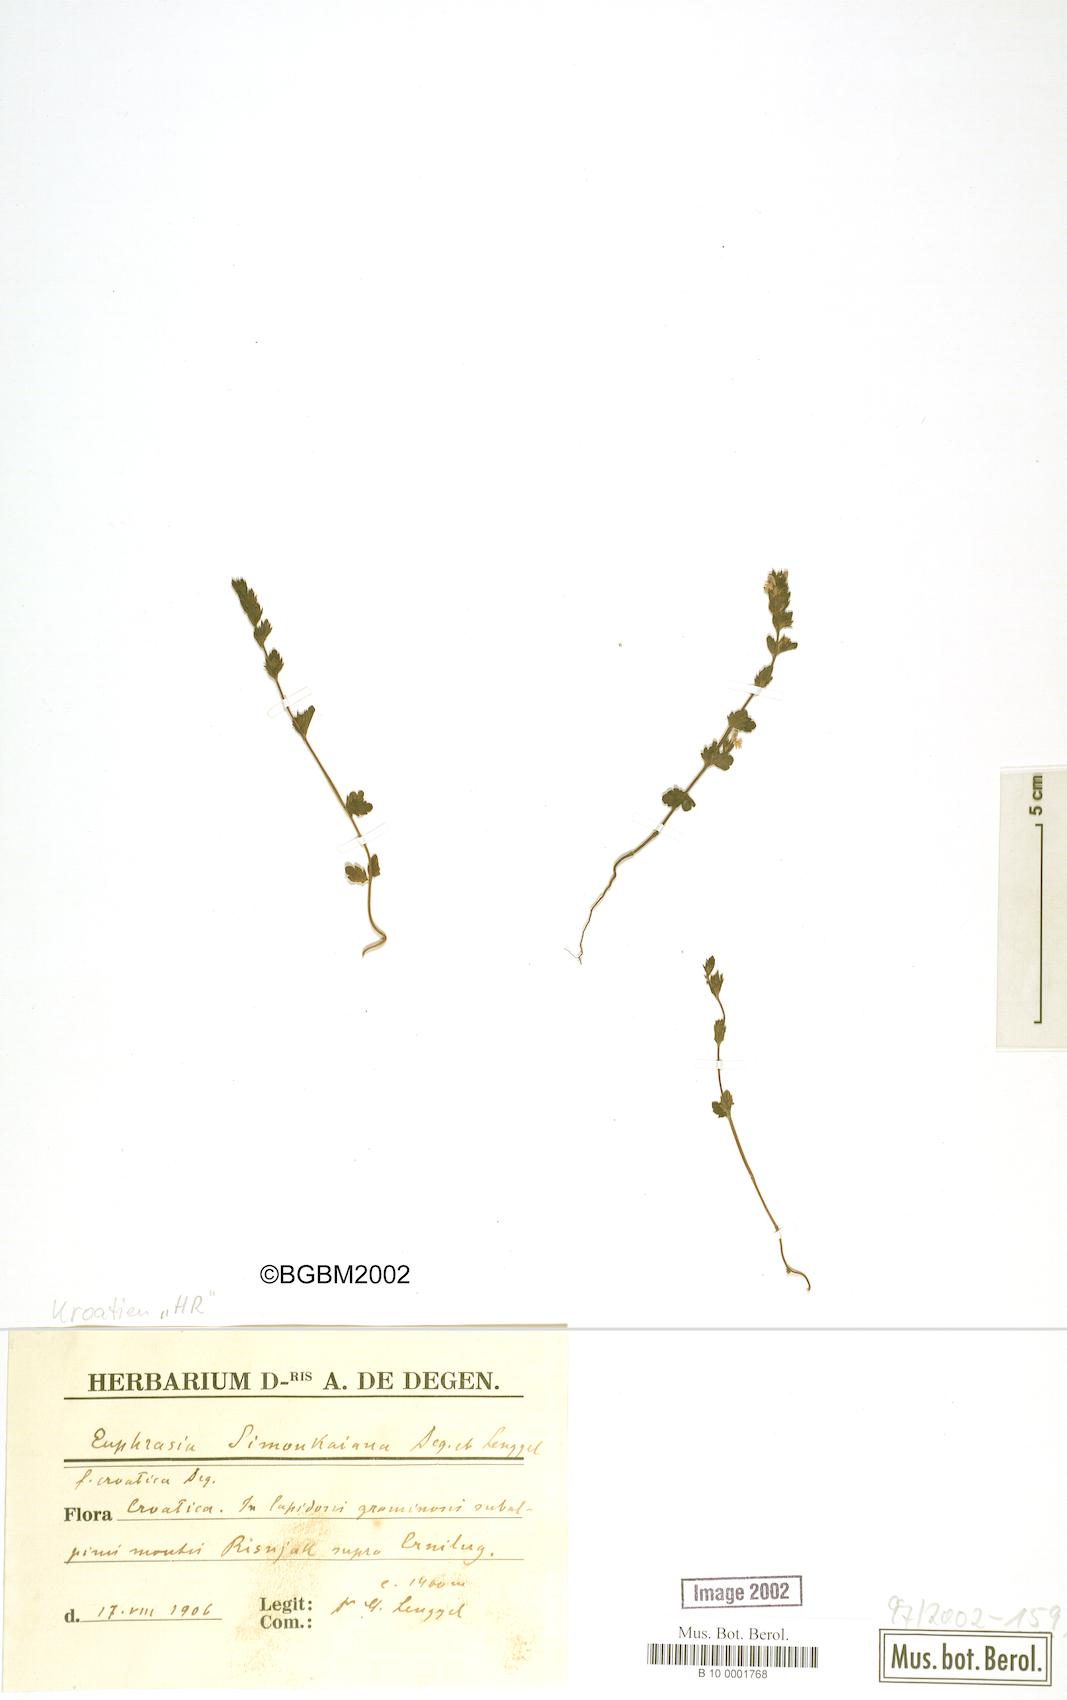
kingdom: Plantae
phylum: Tracheophyta
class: Magnoliopsida
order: Lamiales
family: Orobanchaceae
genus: Euphrasia
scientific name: Euphrasia simonkaiana
